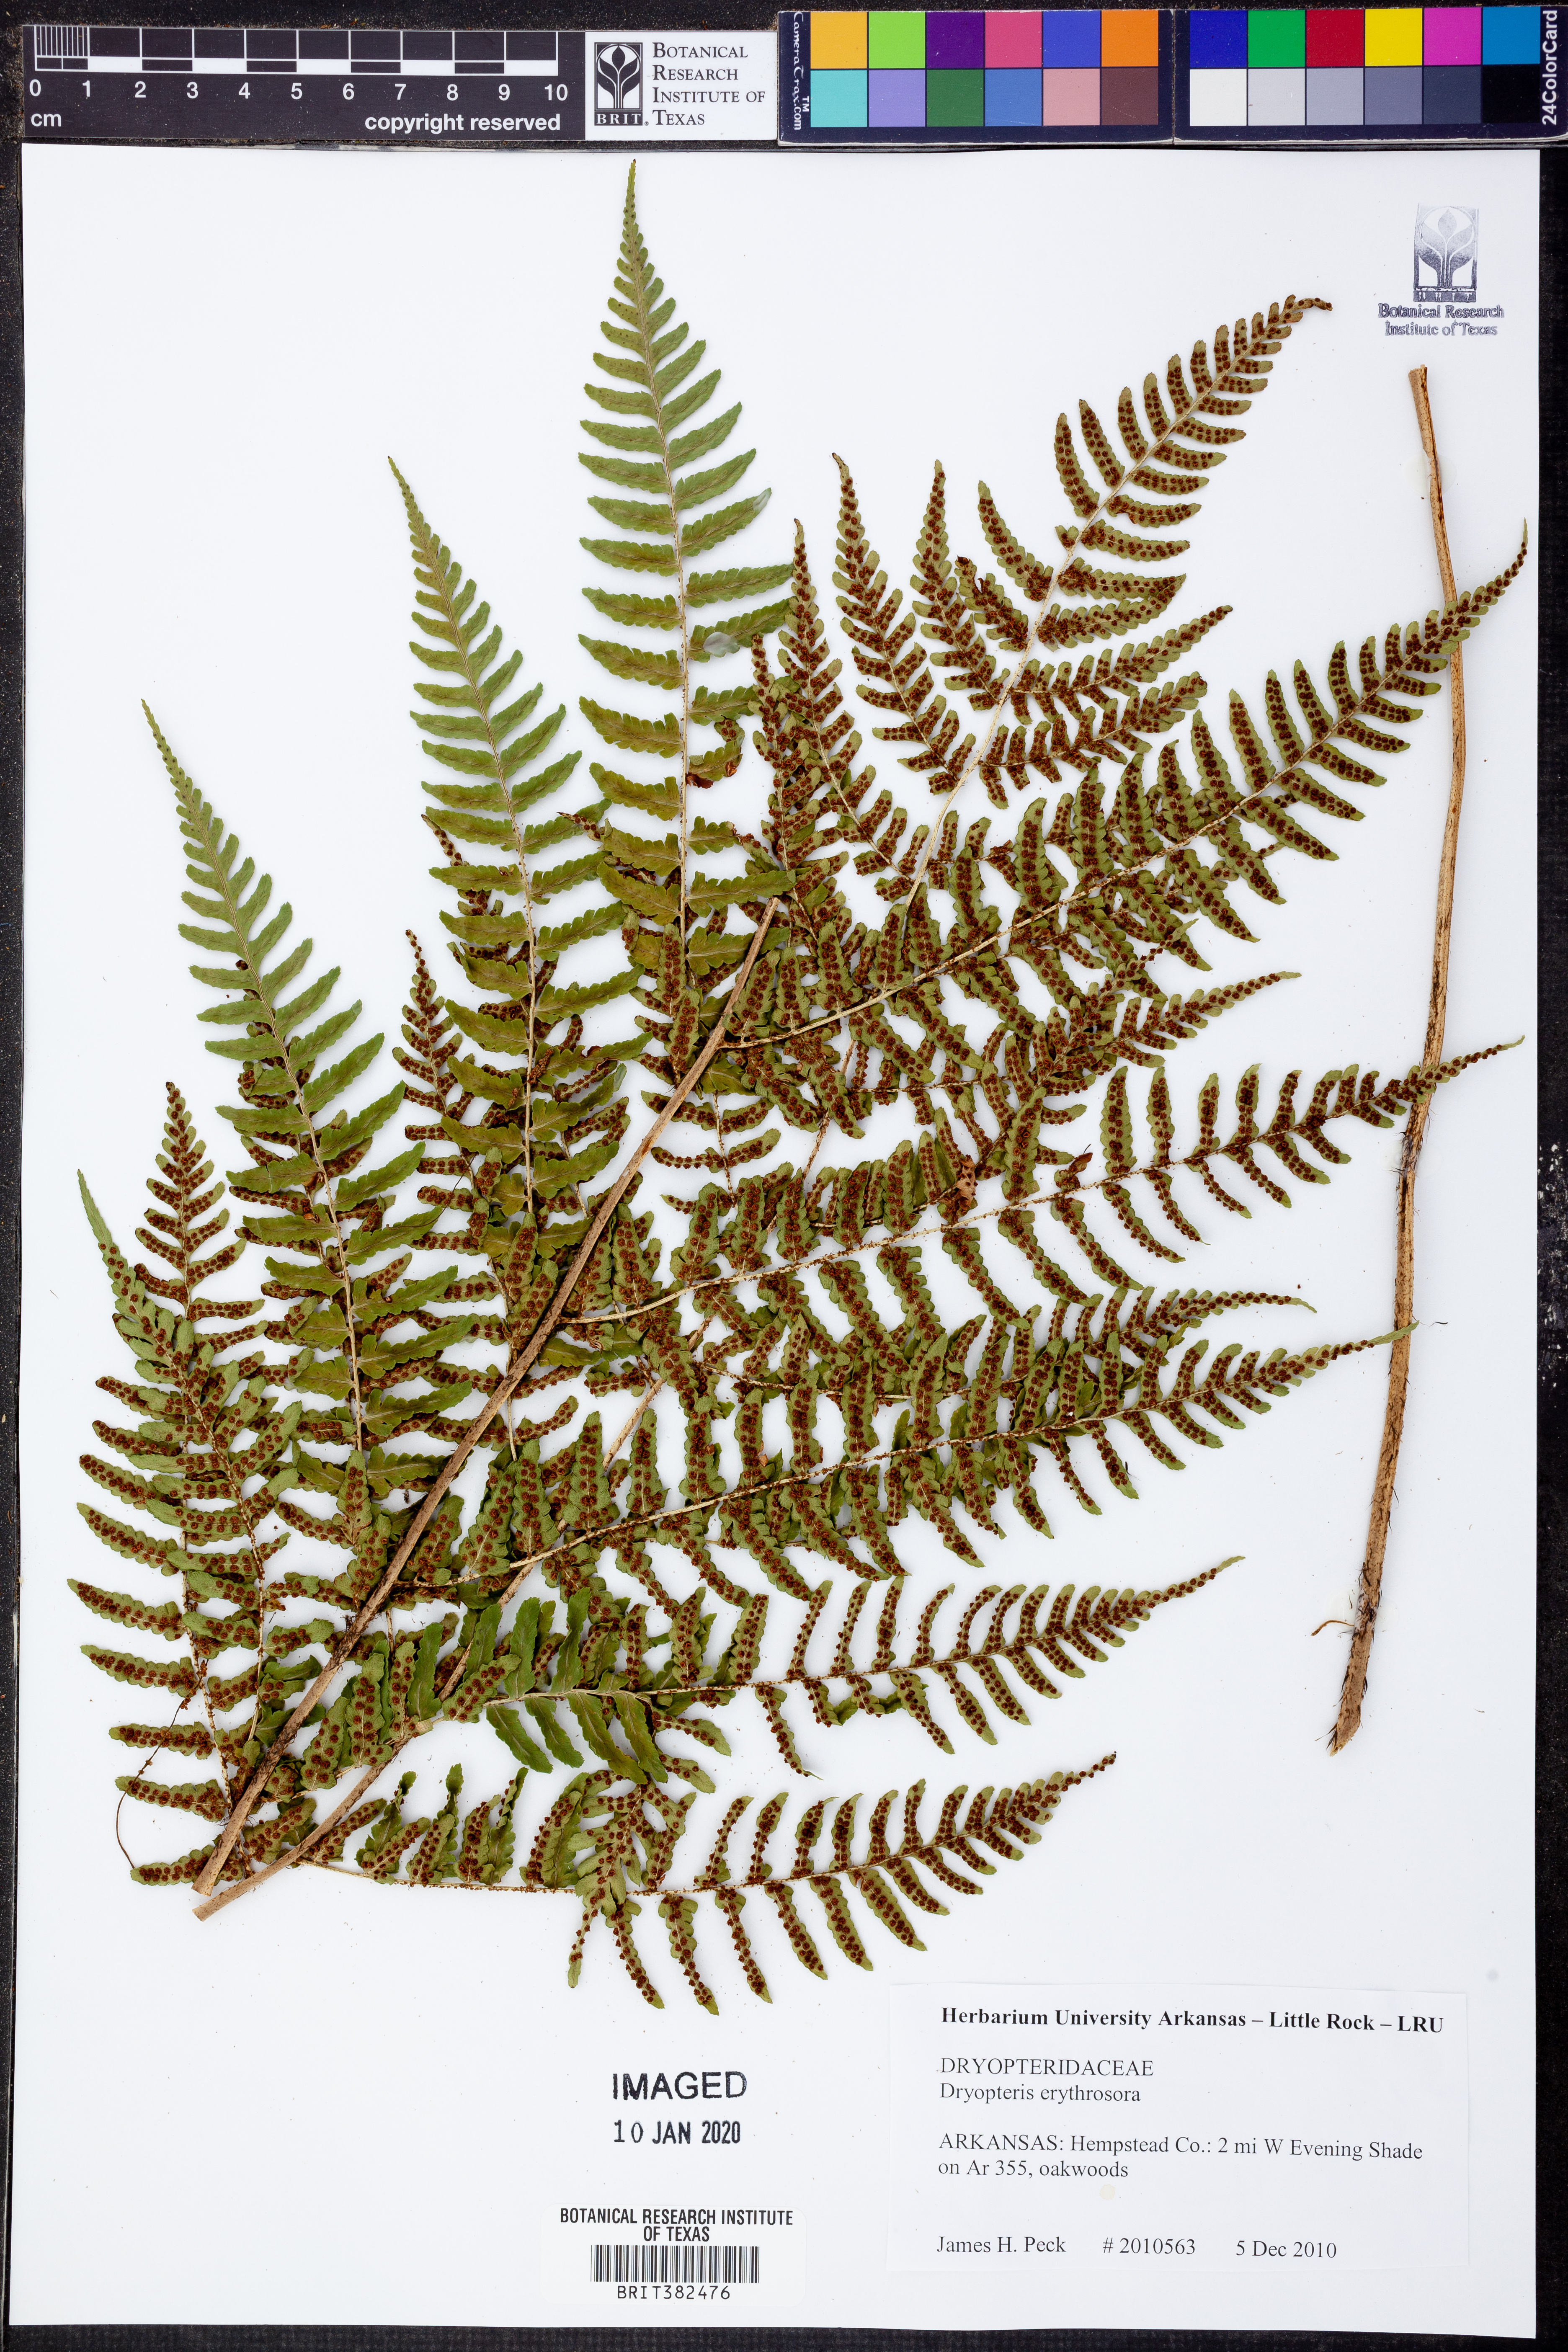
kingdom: Plantae
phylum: Tracheophyta
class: Polypodiopsida
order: Polypodiales
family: Dryopteridaceae
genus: Dryopteris
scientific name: Dryopteris erythrosora
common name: Autumn fern
